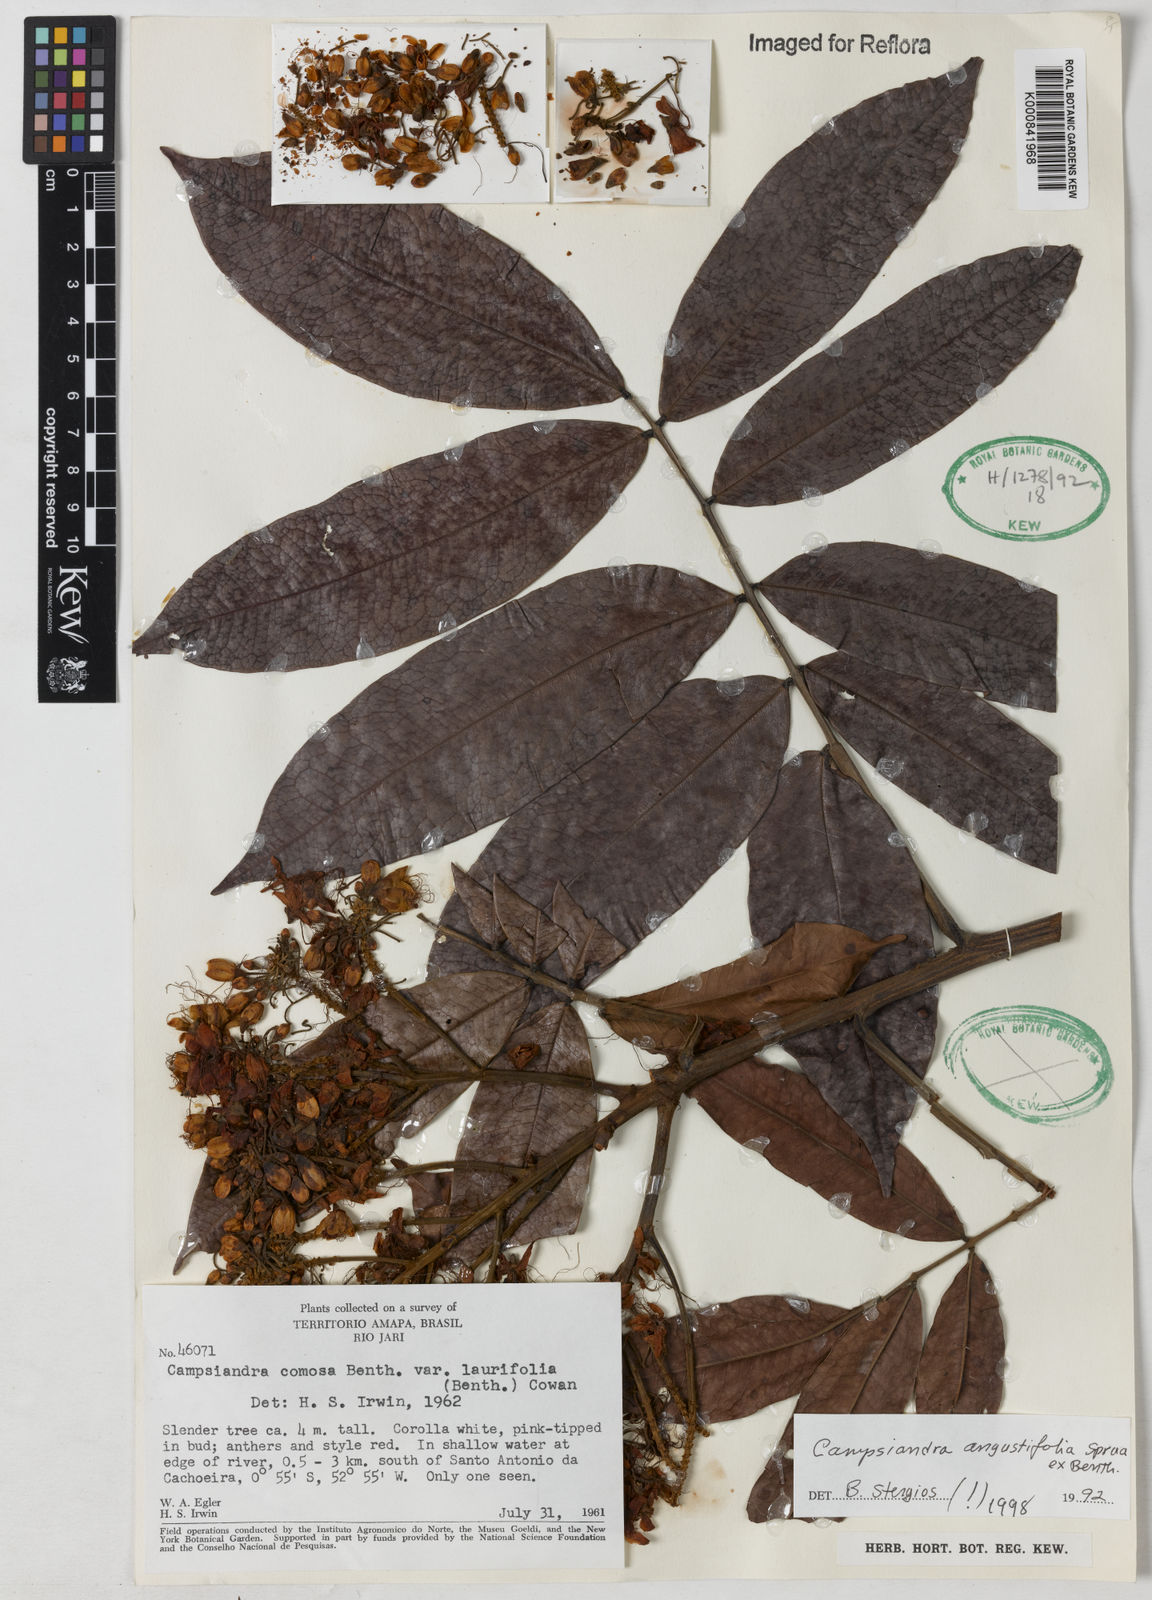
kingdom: Plantae
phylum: Tracheophyta
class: Magnoliopsida
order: Fabales
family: Fabaceae
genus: Campsiandra
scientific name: Campsiandra
